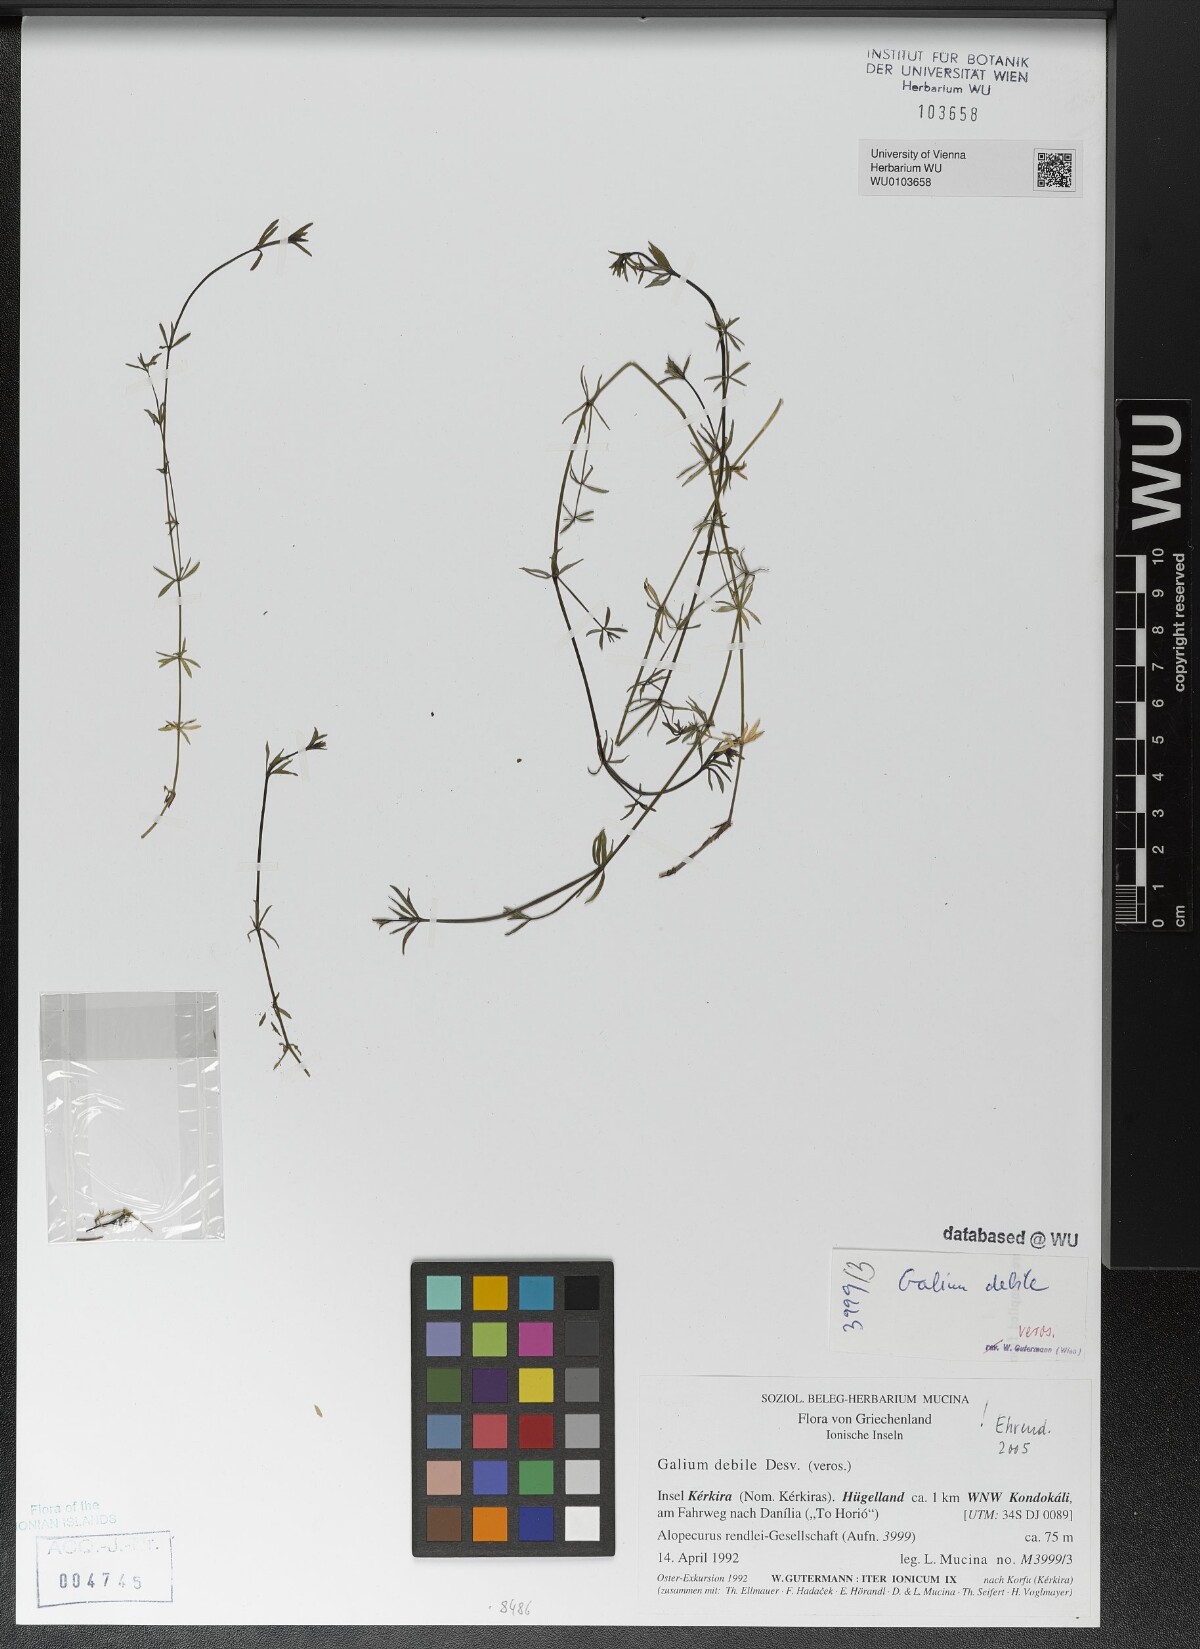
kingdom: Plantae
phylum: Tracheophyta
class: Magnoliopsida
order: Gentianales
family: Rubiaceae
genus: Galium
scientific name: Galium debile
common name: Slender marsh-bedstraw
